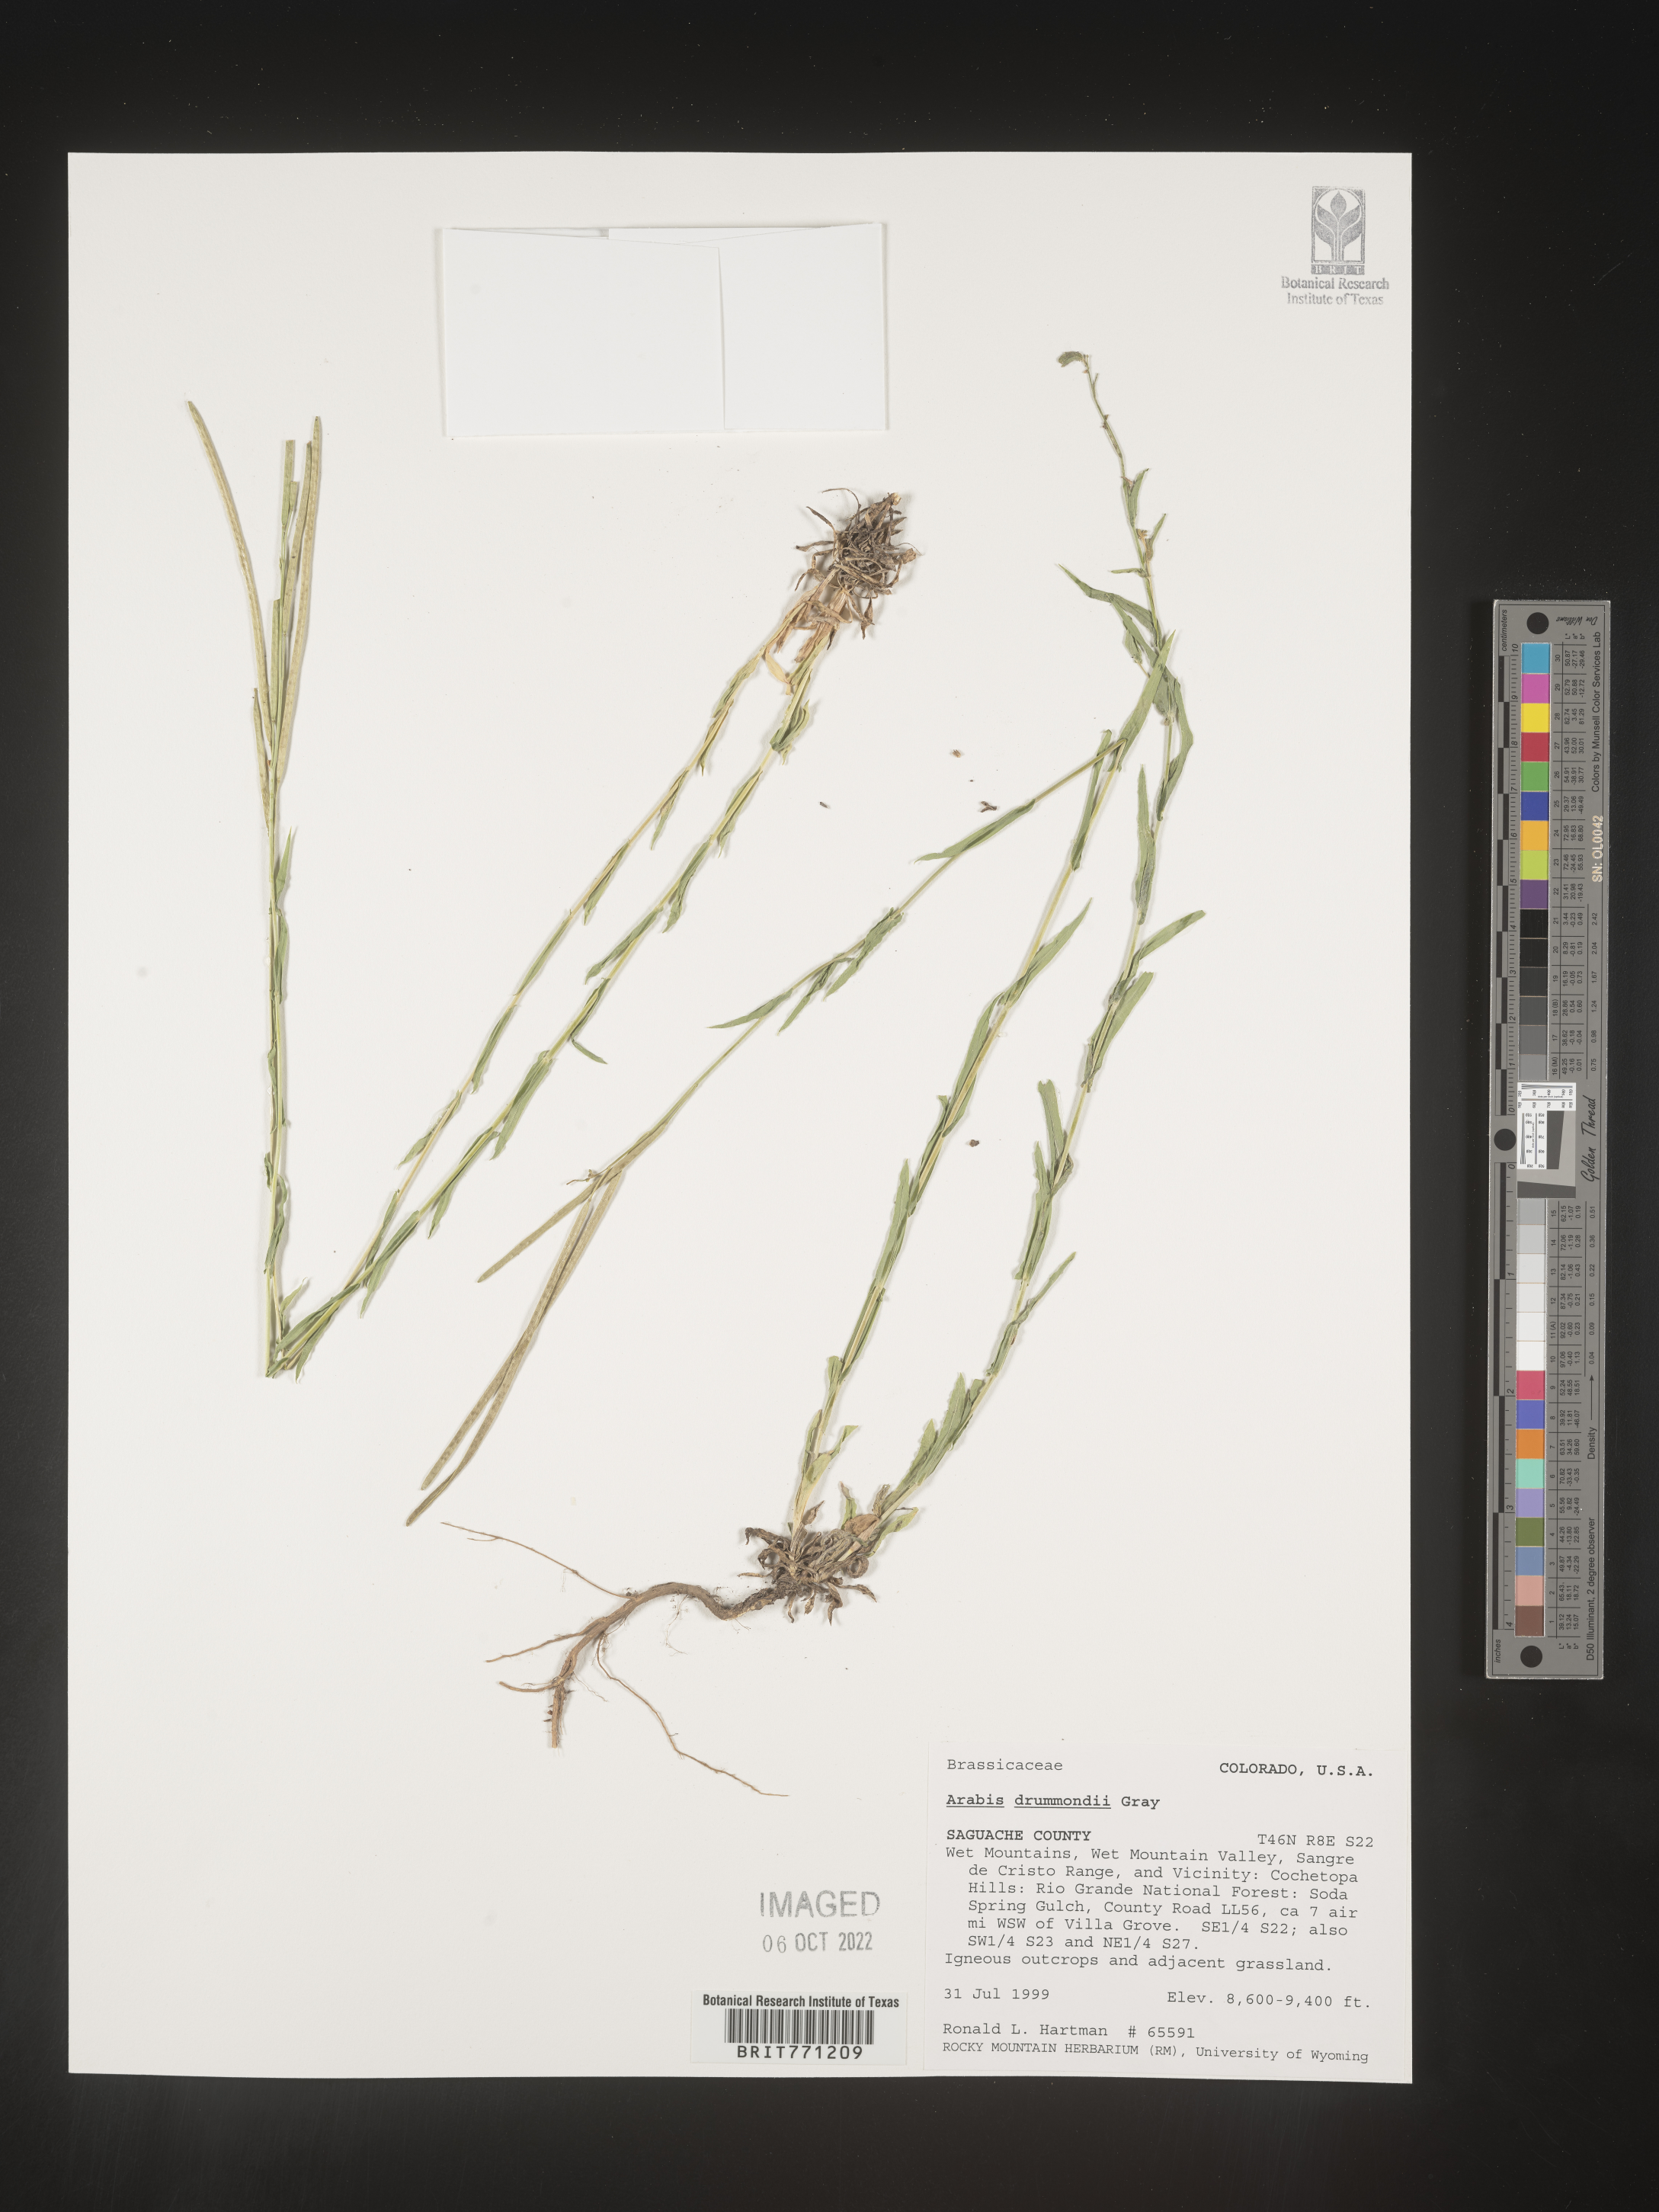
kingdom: Plantae
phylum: Tracheophyta
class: Magnoliopsida
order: Brassicales
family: Brassicaceae
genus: Boechera
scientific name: Boechera stricta
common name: Canadian rockcress
